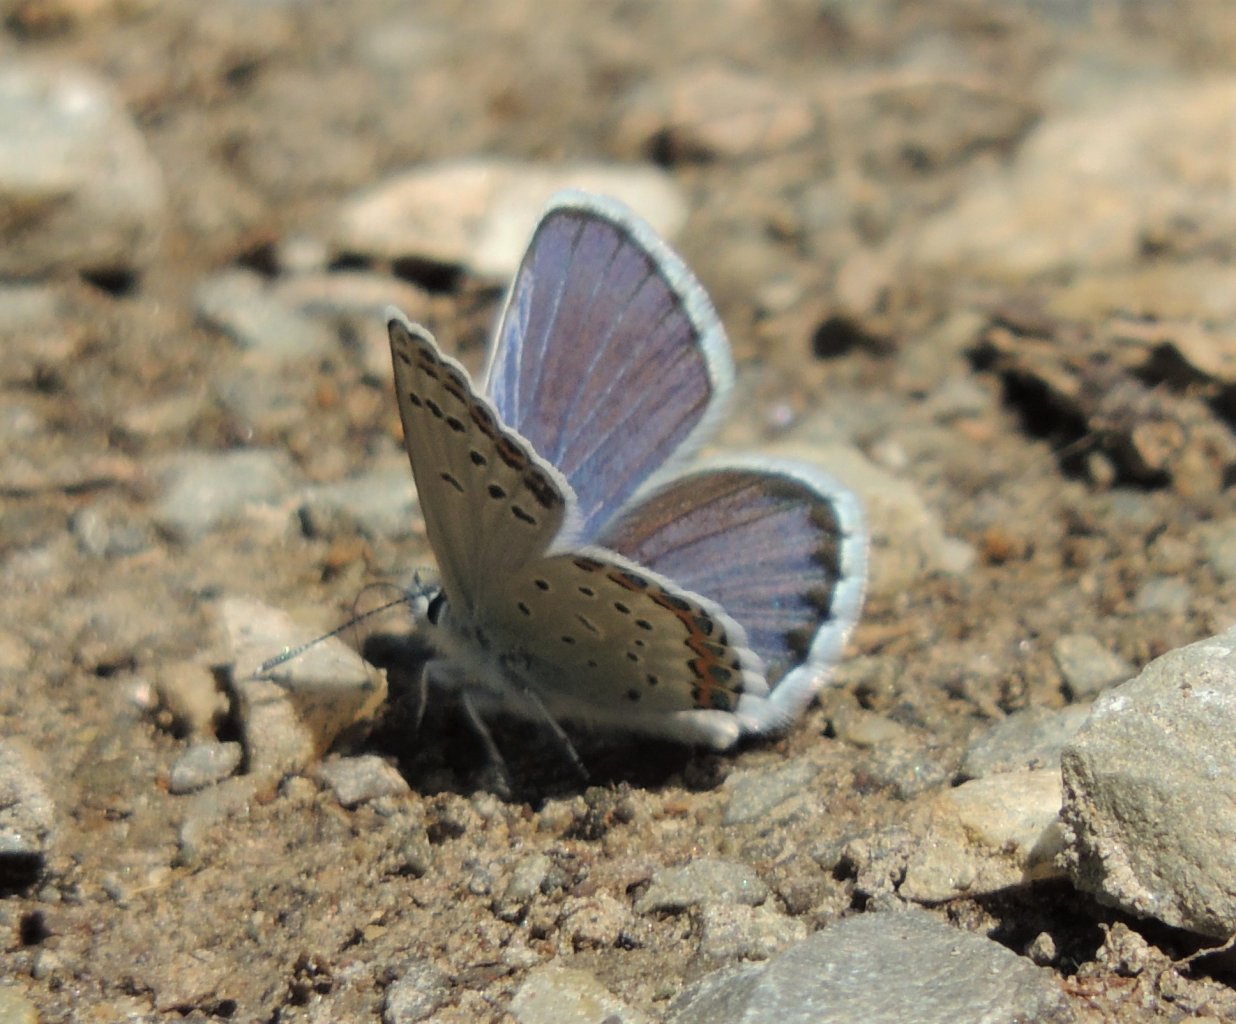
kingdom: Animalia
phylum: Arthropoda
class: Insecta
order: Lepidoptera
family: Lycaenidae
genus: Lycaeides
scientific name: Lycaeides melissa
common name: Melissa Blue
